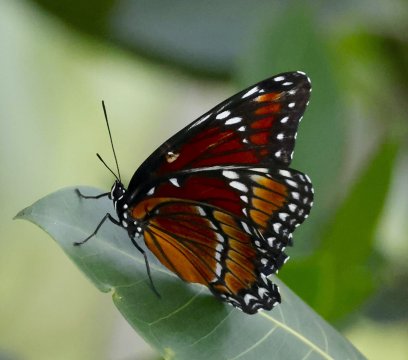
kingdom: Animalia
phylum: Arthropoda
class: Insecta
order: Lepidoptera
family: Nymphalidae
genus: Limenitis
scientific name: Limenitis archippus
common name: Viceroy
